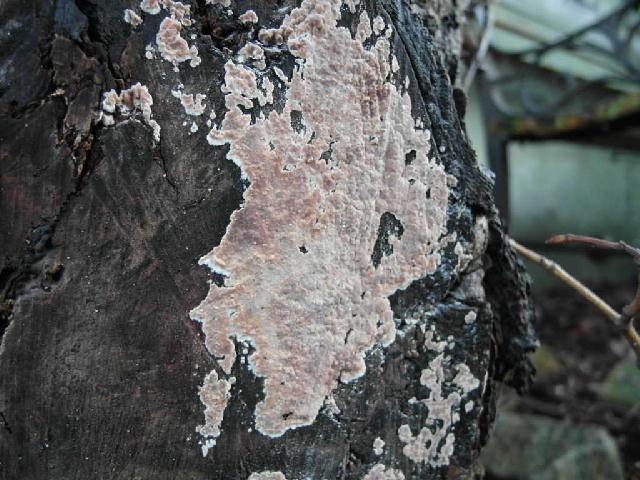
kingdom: Fungi
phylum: Basidiomycota
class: Agaricomycetes
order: Agaricales
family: Physalacriaceae
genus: Cylindrobasidium
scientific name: Cylindrobasidium evolvens
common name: sprækkehinde
